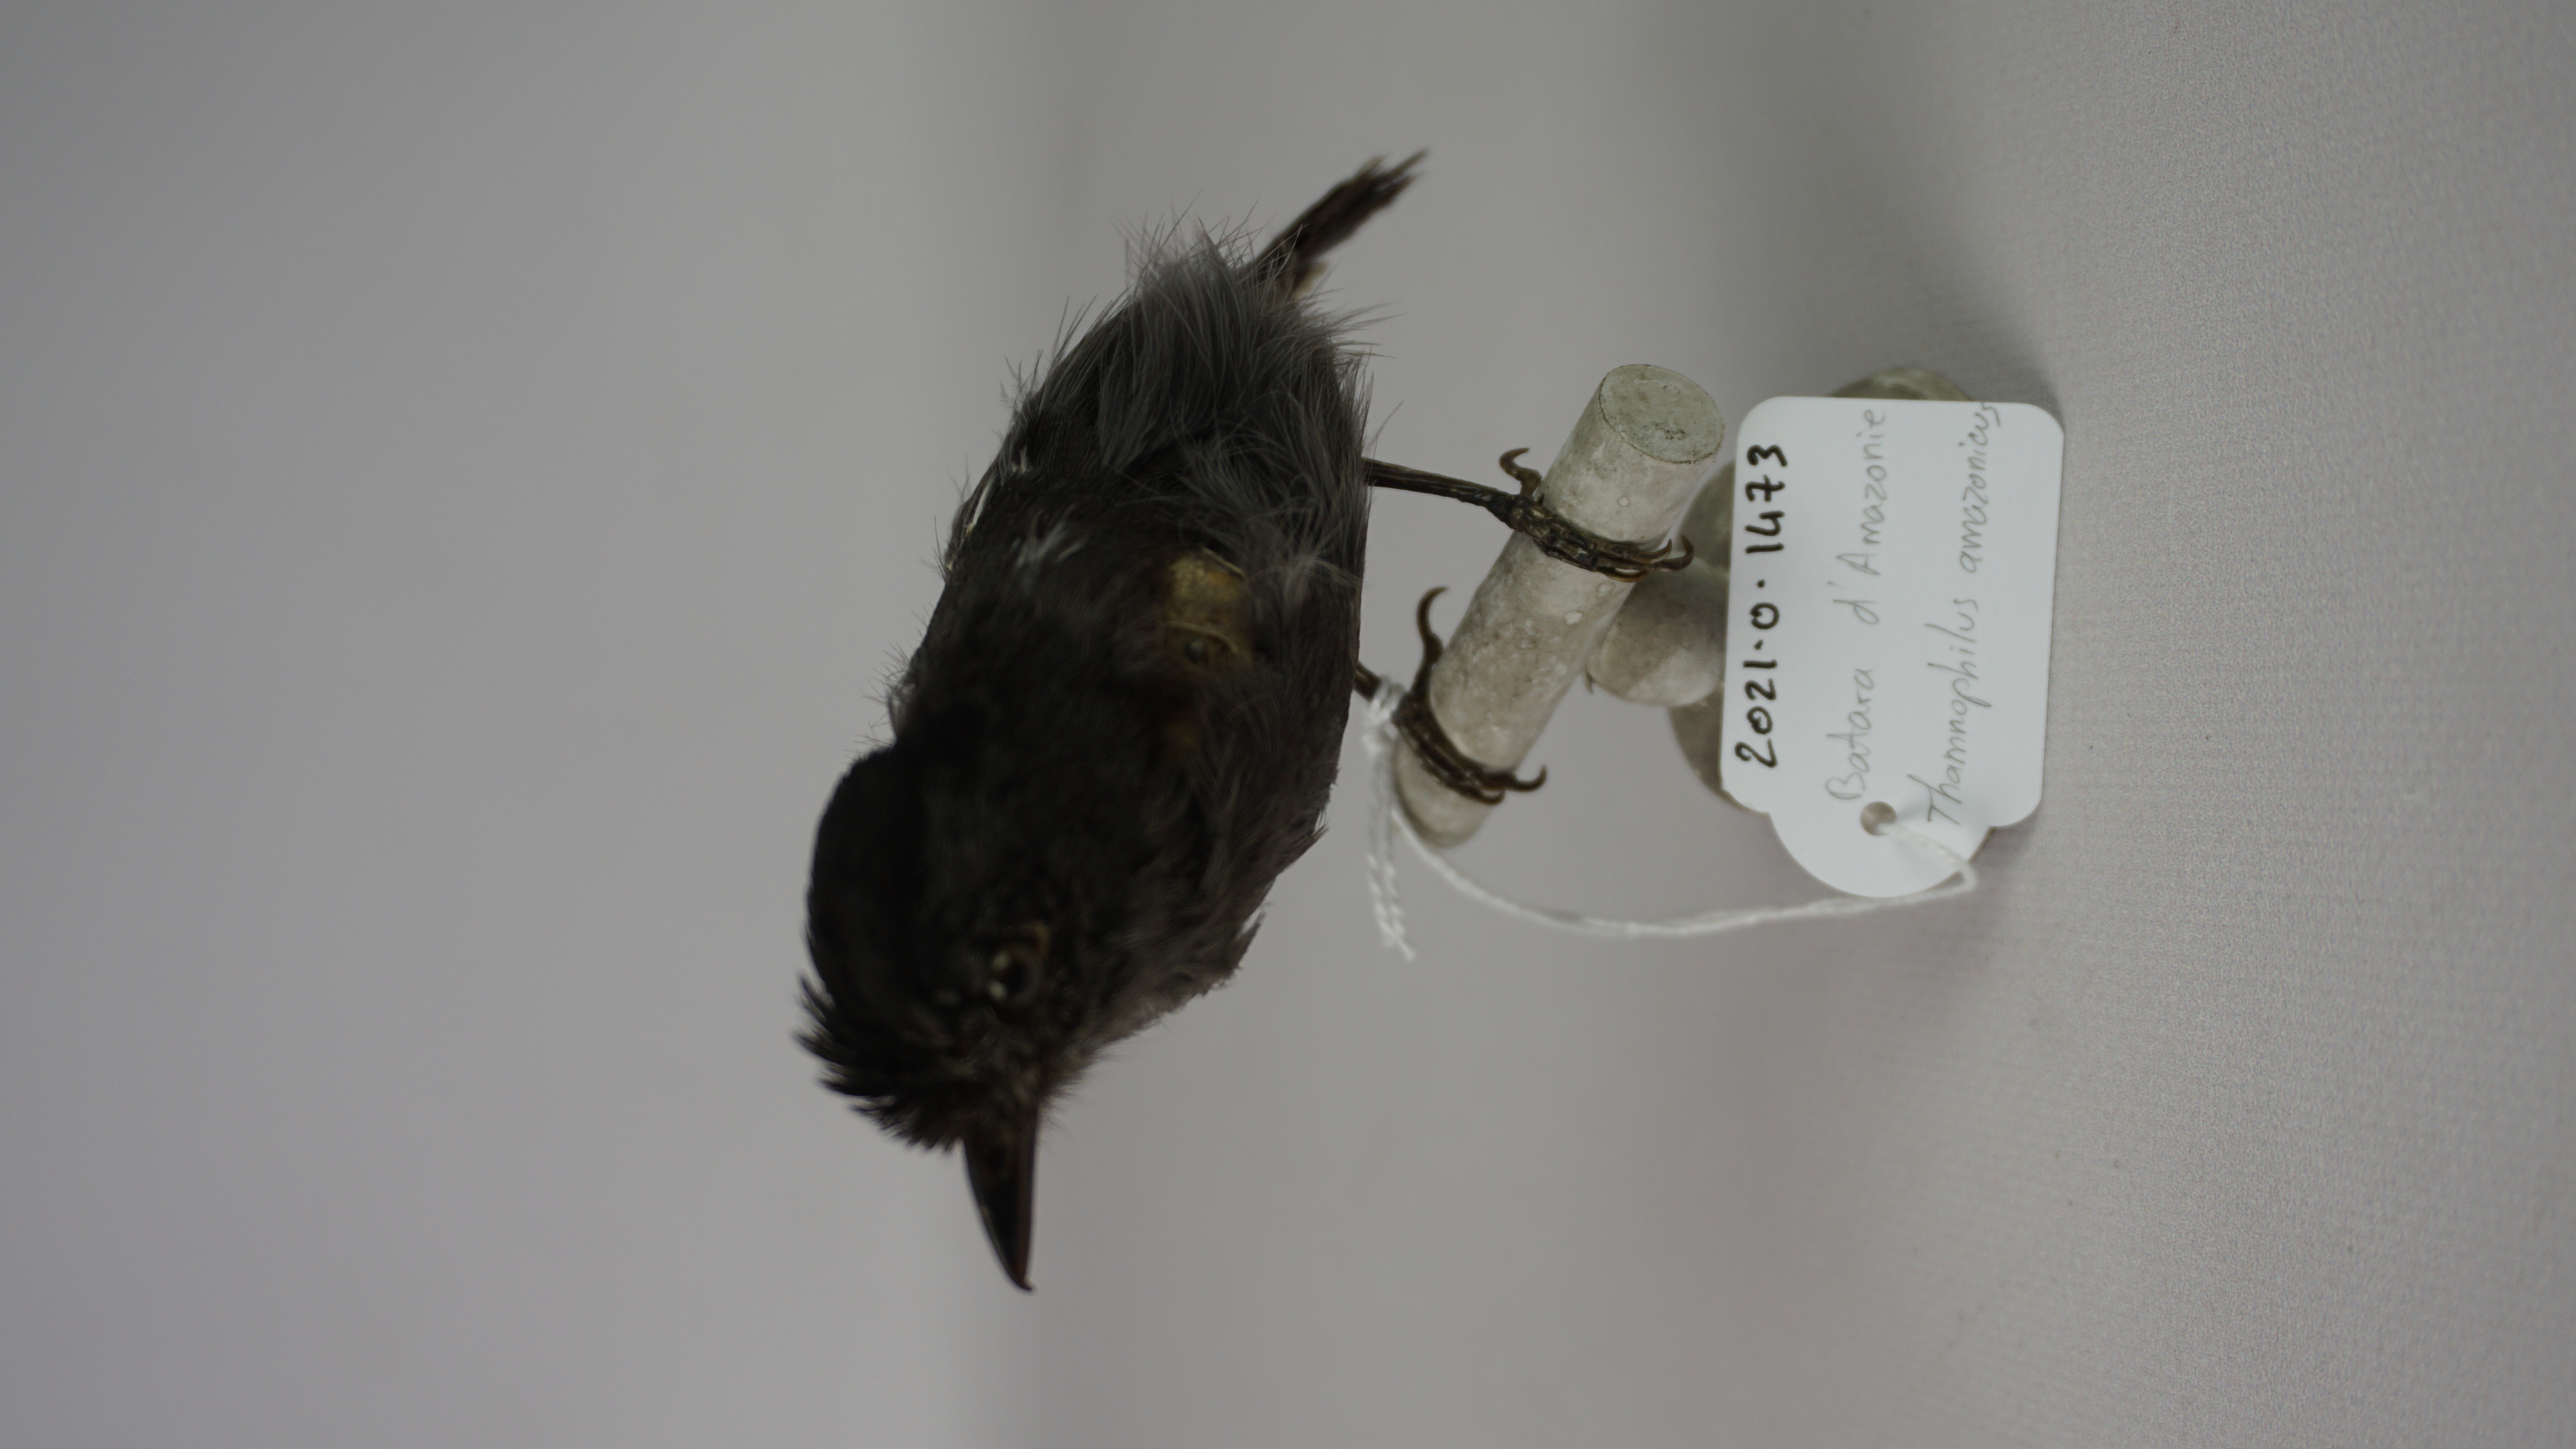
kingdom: Animalia
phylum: Chordata
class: Aves
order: Passeriformes
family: Thamnophilidae
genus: Thamnophilus
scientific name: Thamnophilus amazonicus
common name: Amazonian antshrike
